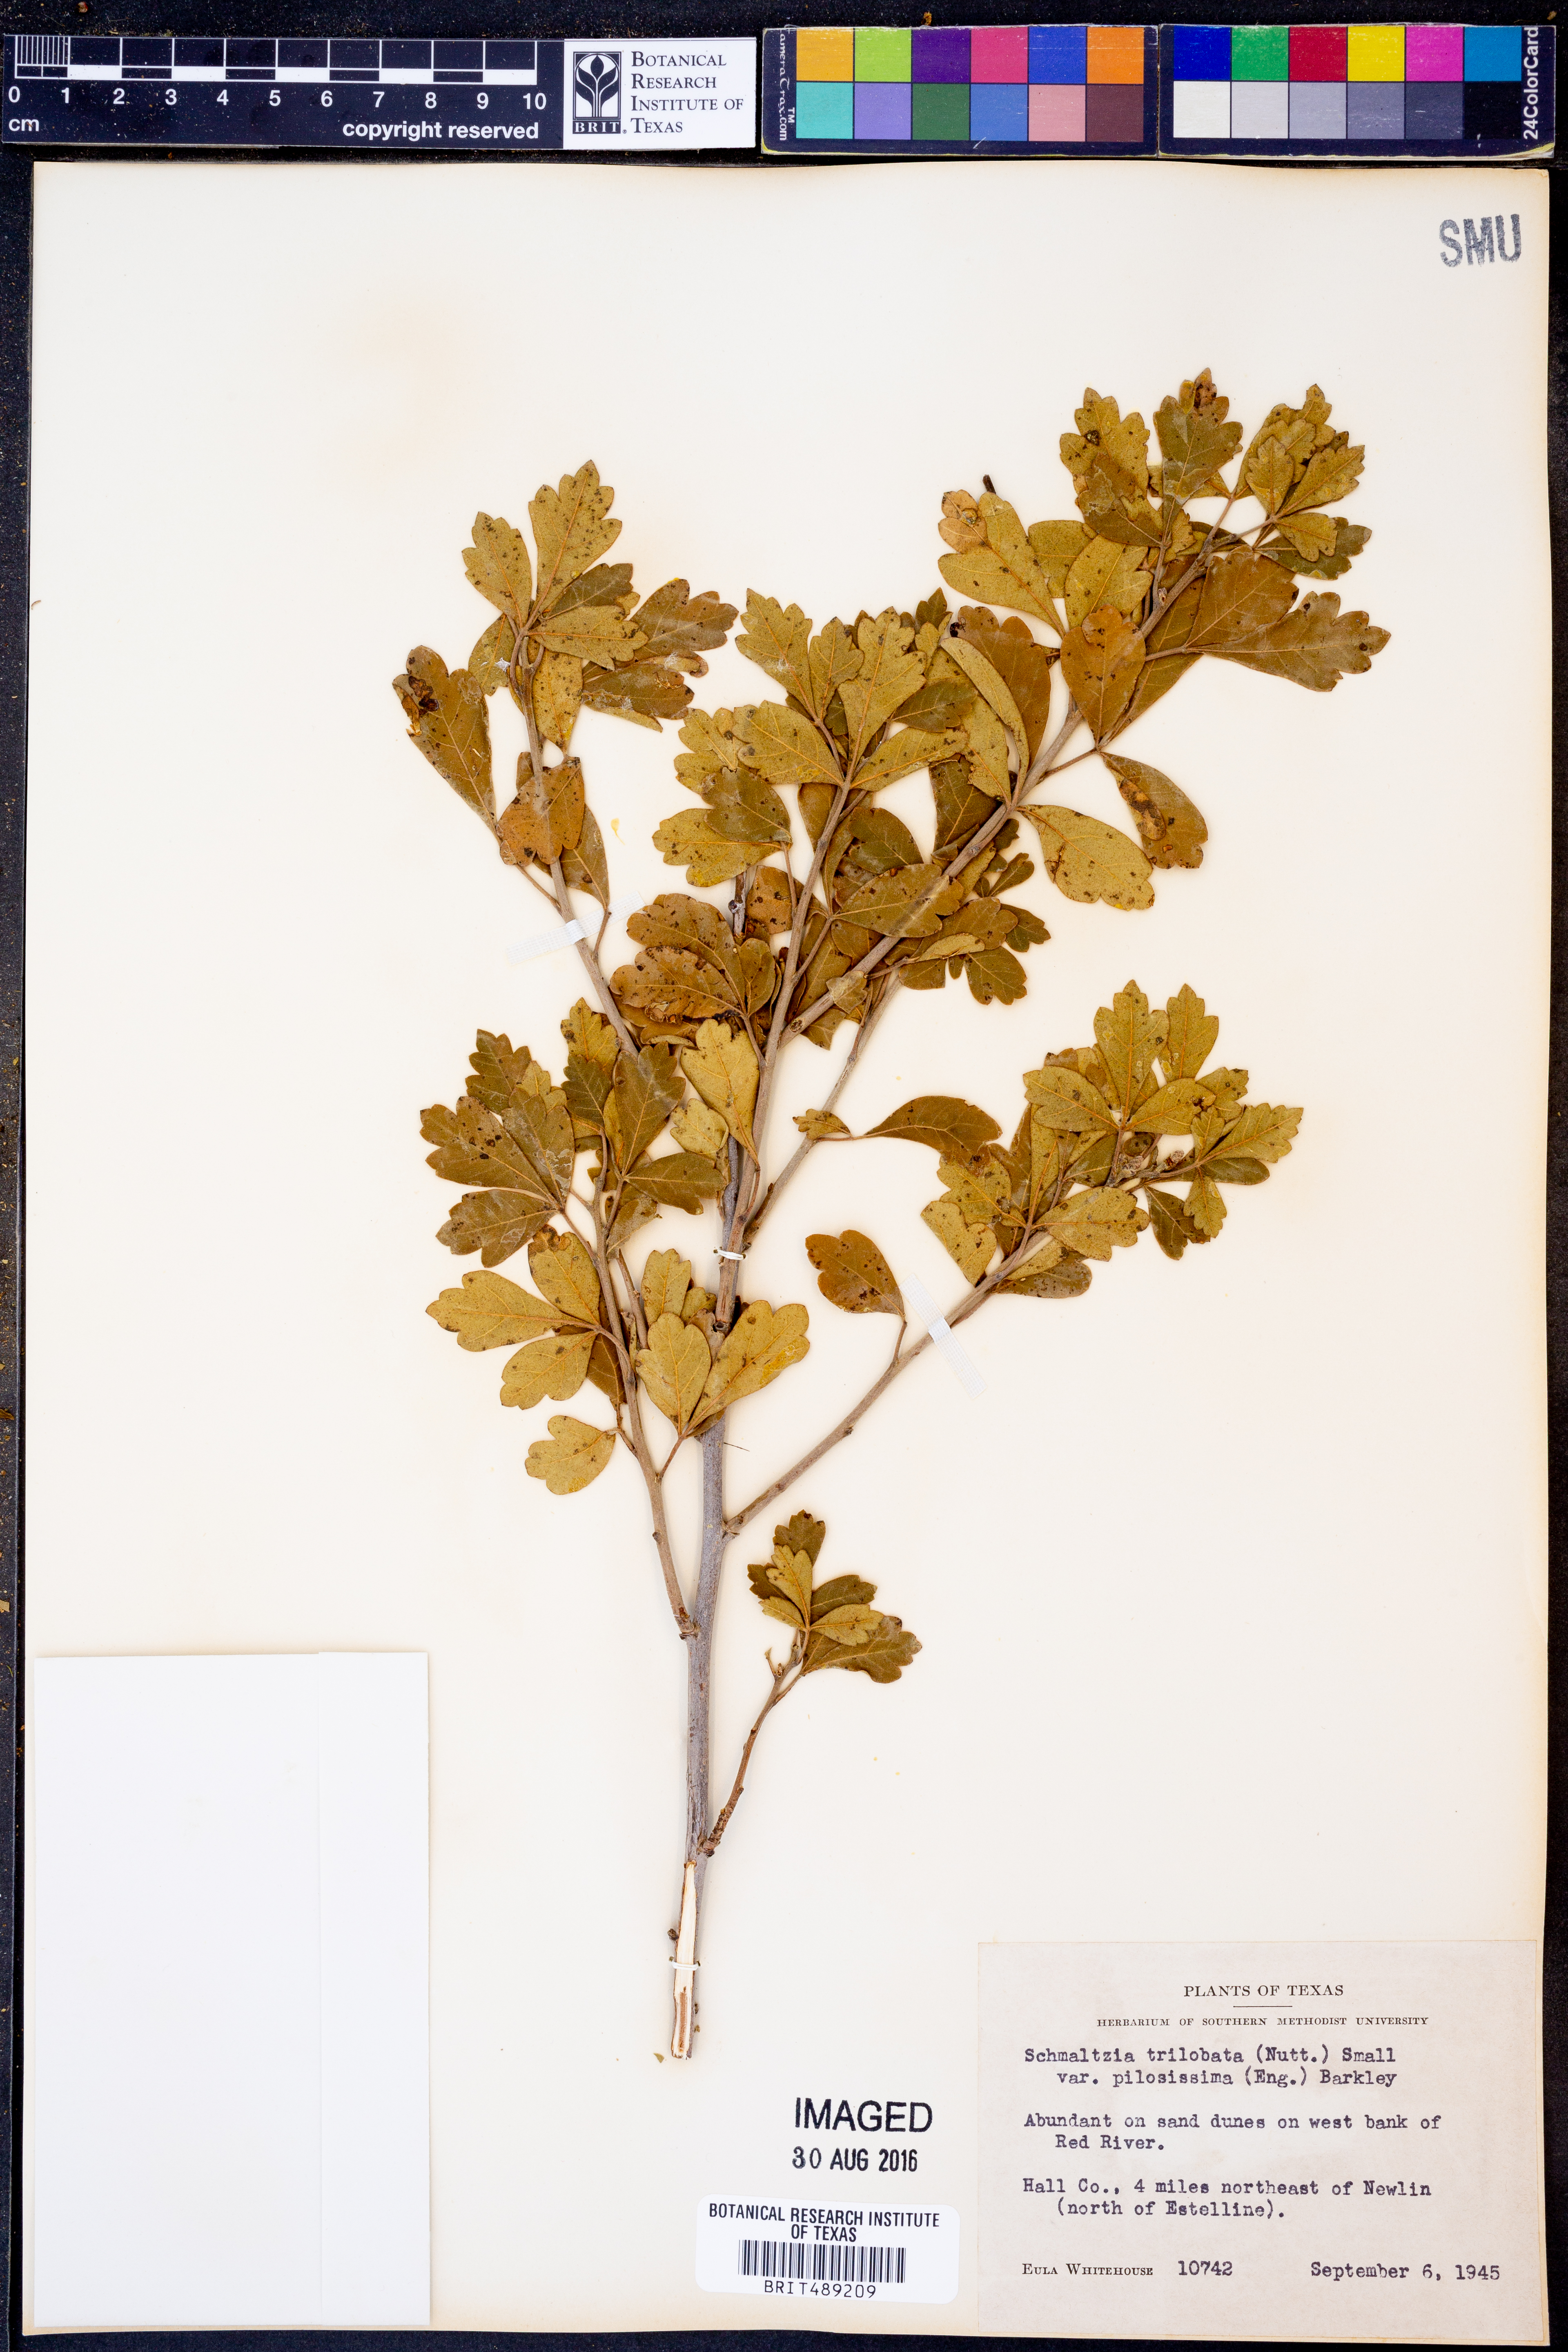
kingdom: Plantae
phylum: Tracheophyta
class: Magnoliopsida
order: Sapindales
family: Anacardiaceae
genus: Rhus
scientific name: Rhus trilobata
